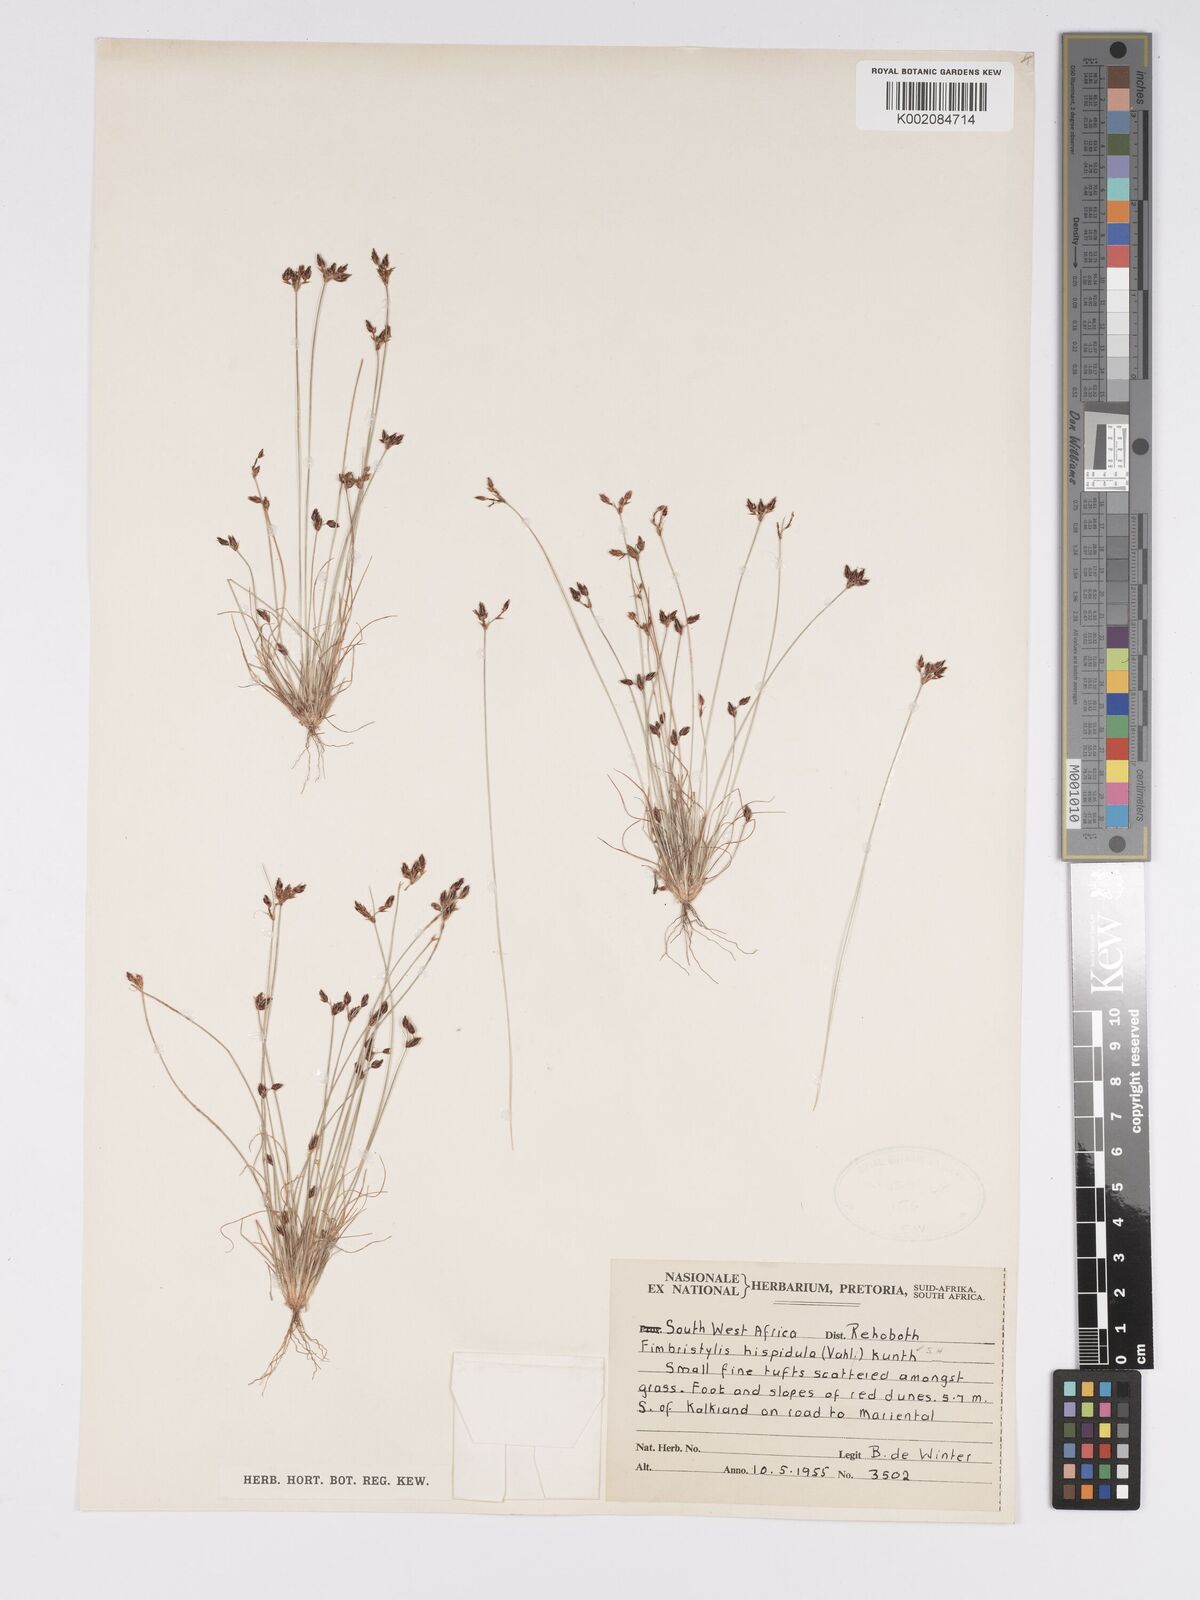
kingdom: Plantae
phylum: Tracheophyta
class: Liliopsida
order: Poales
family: Cyperaceae
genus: Bulbostylis
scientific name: Bulbostylis hispidula
